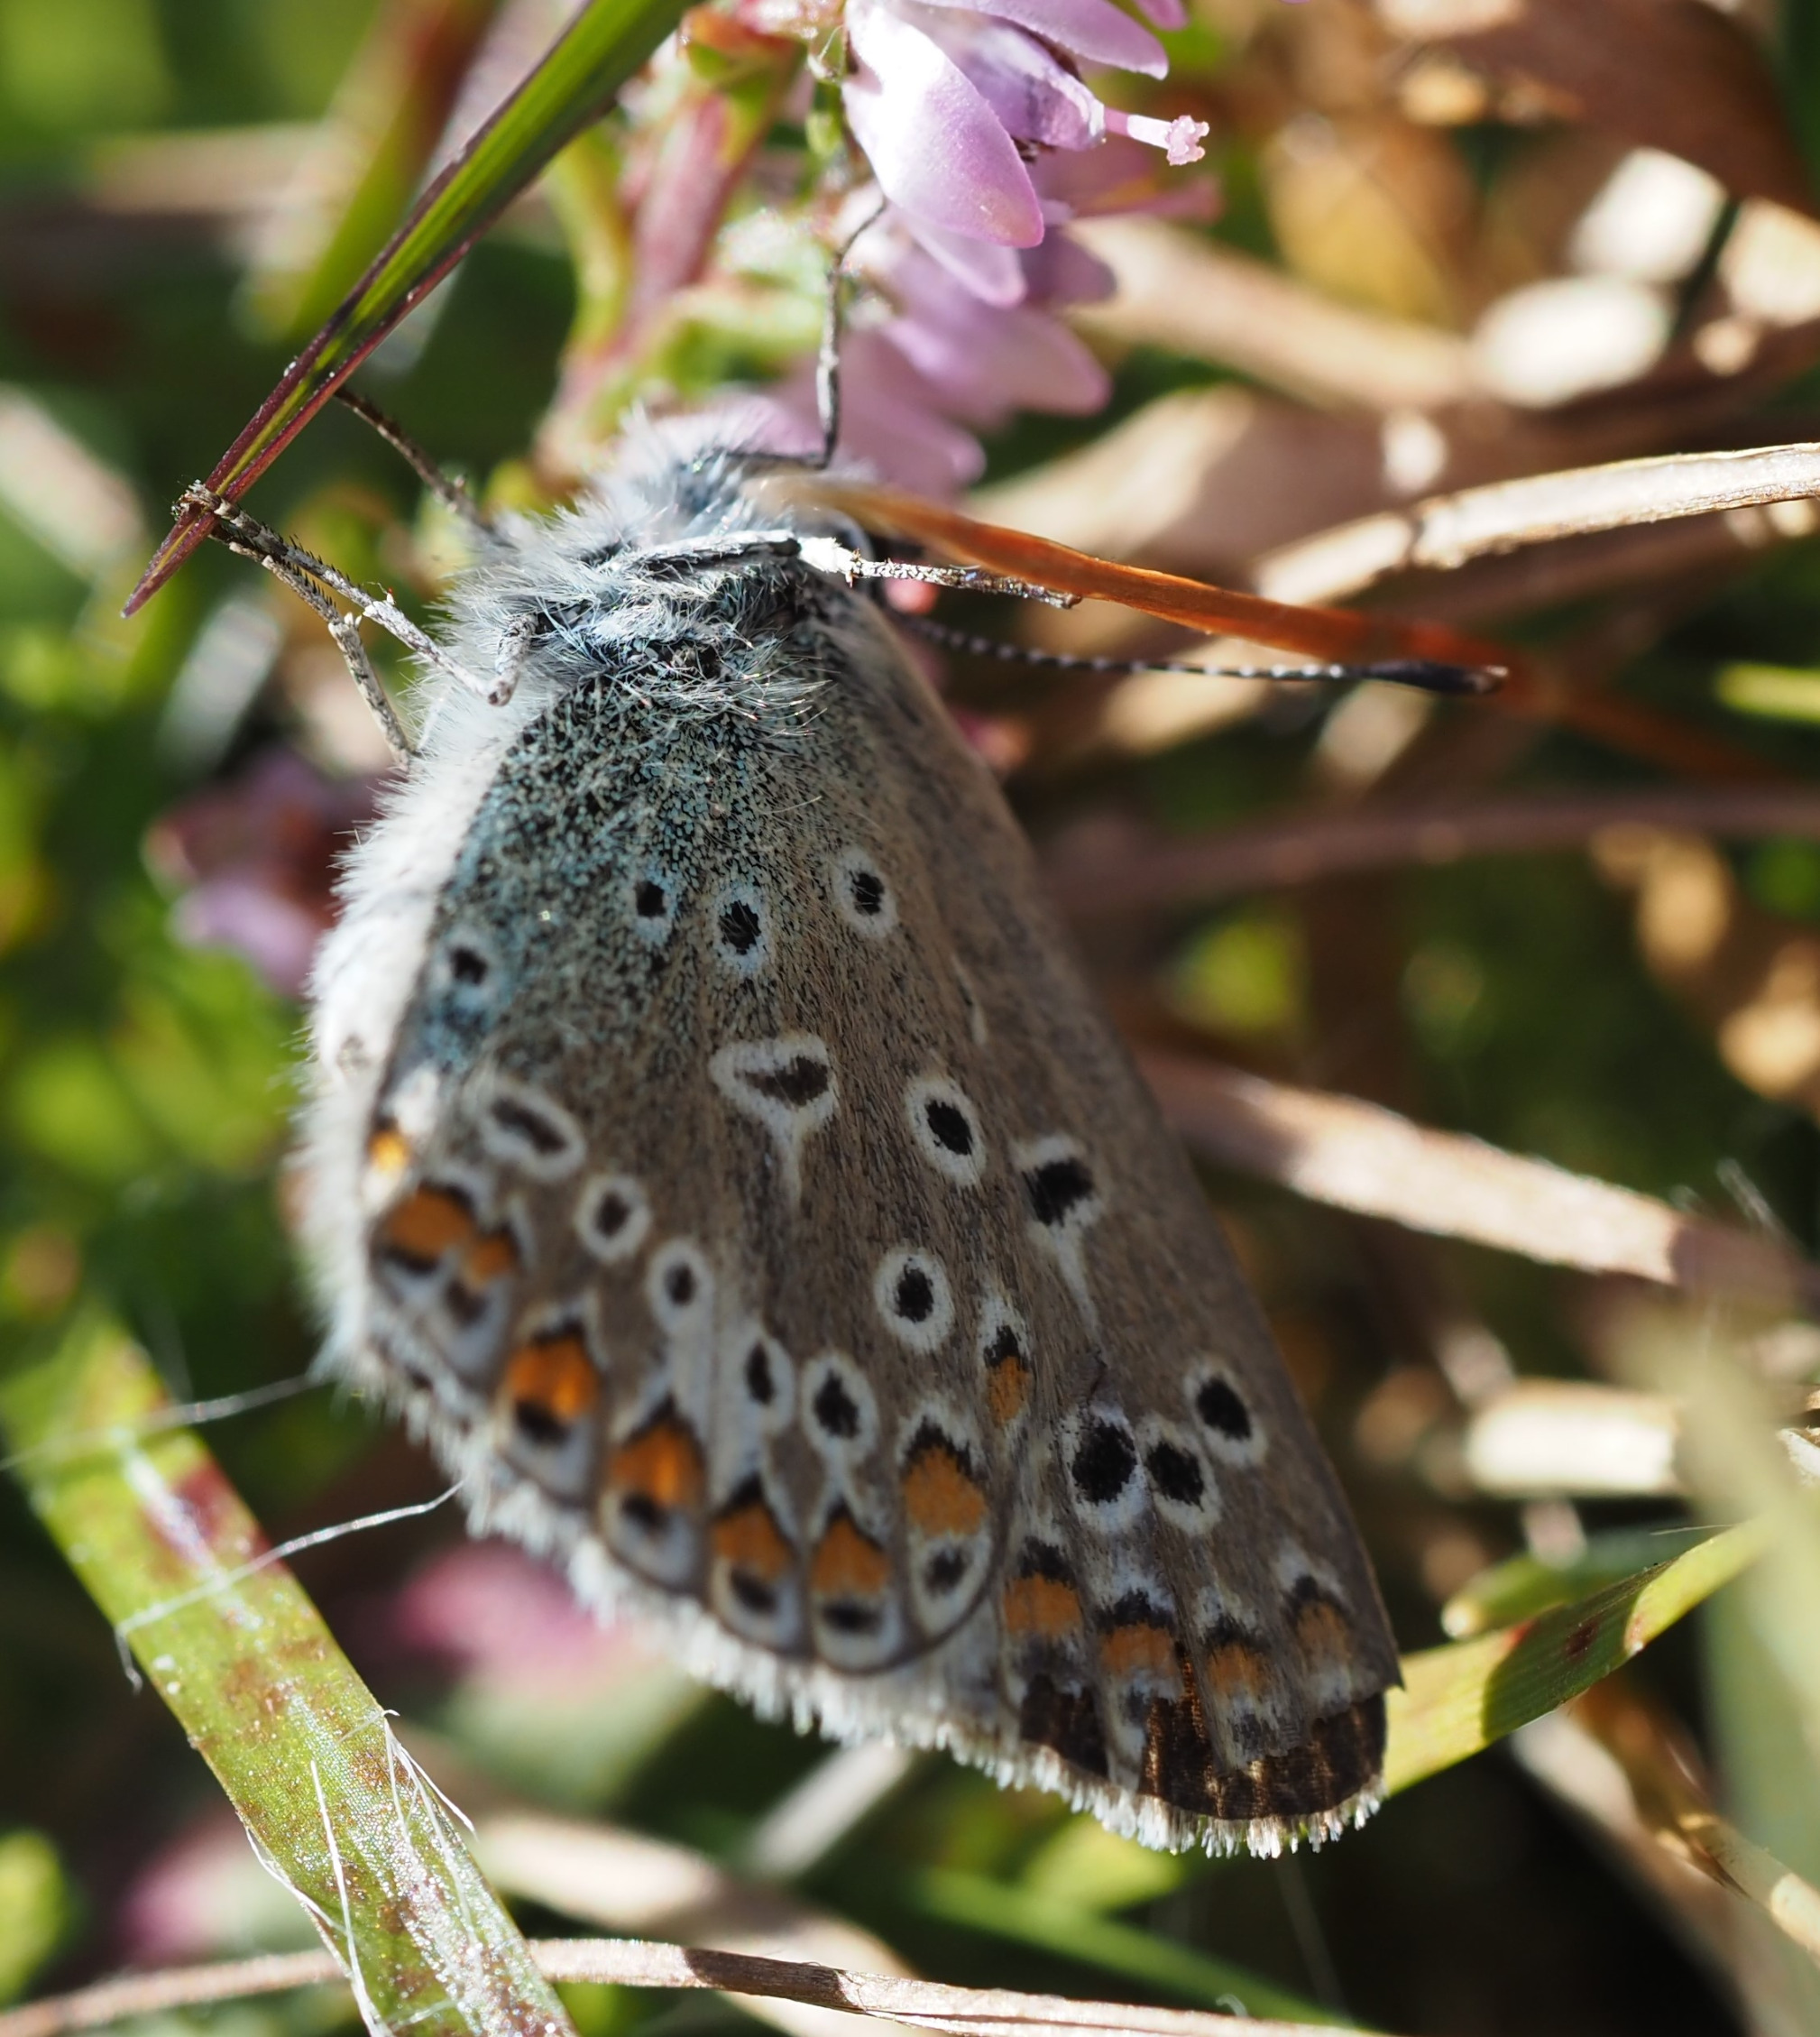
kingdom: Animalia
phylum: Arthropoda
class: Insecta
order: Lepidoptera
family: Lycaenidae
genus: Polyommatus
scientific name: Polyommatus icarus
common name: Almindelig blåfugl
